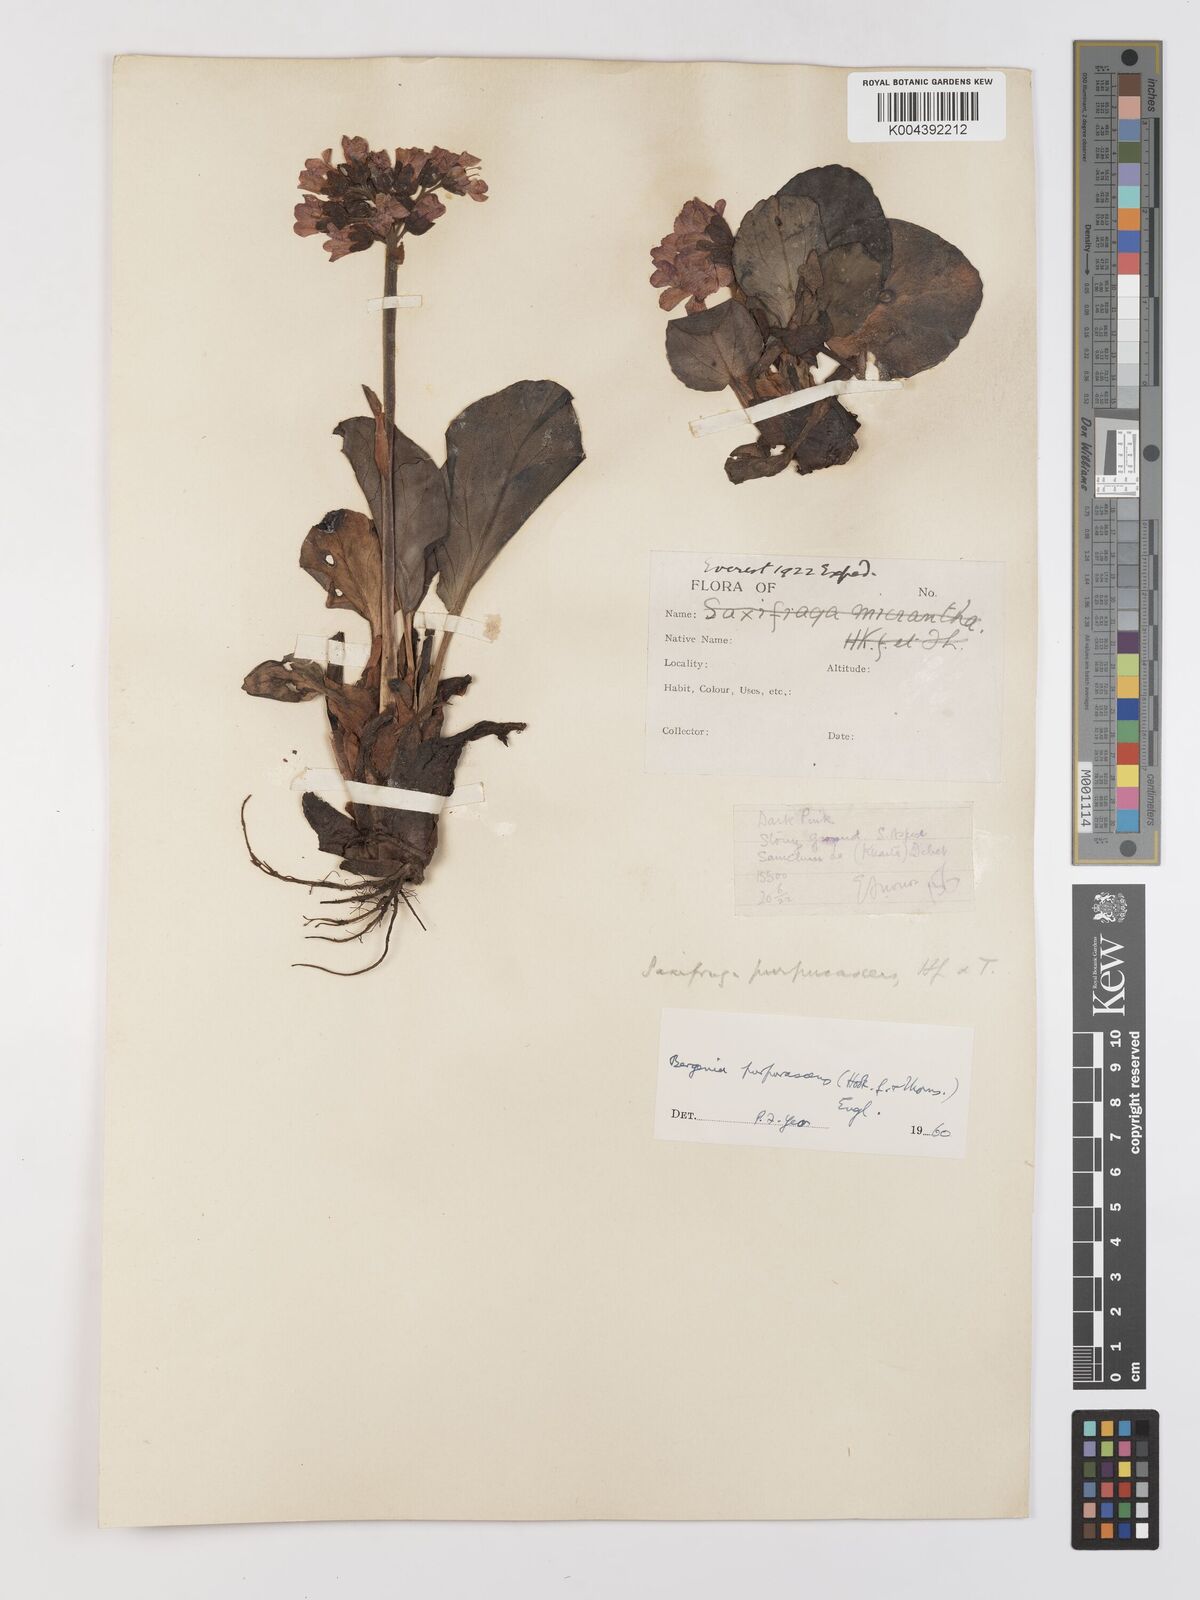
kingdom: Plantae
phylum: Tracheophyta
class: Magnoliopsida
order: Saxifragales
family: Saxifragaceae
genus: Bergenia
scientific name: Bergenia purpurascens
